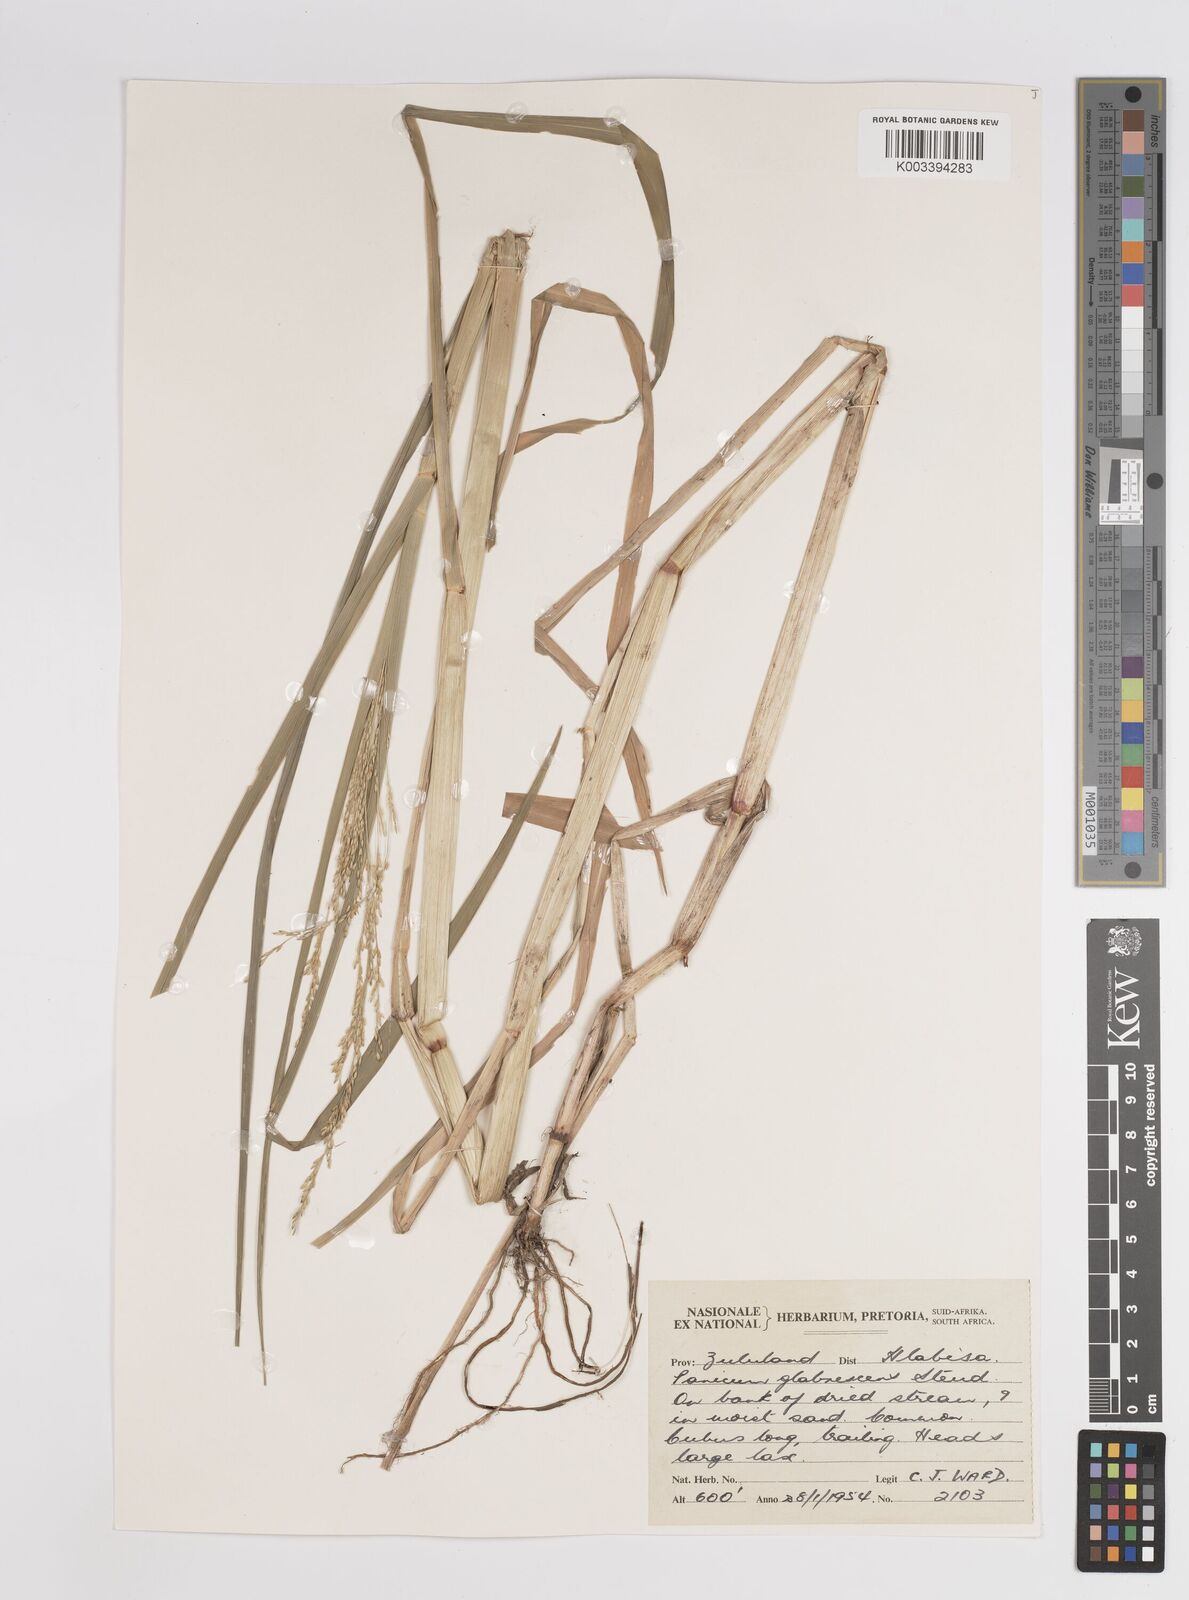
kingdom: Plantae
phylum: Tracheophyta
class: Liliopsida
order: Poales
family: Poaceae
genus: Panicum
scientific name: Panicum subalbidum
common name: Elbow buffalo grass
